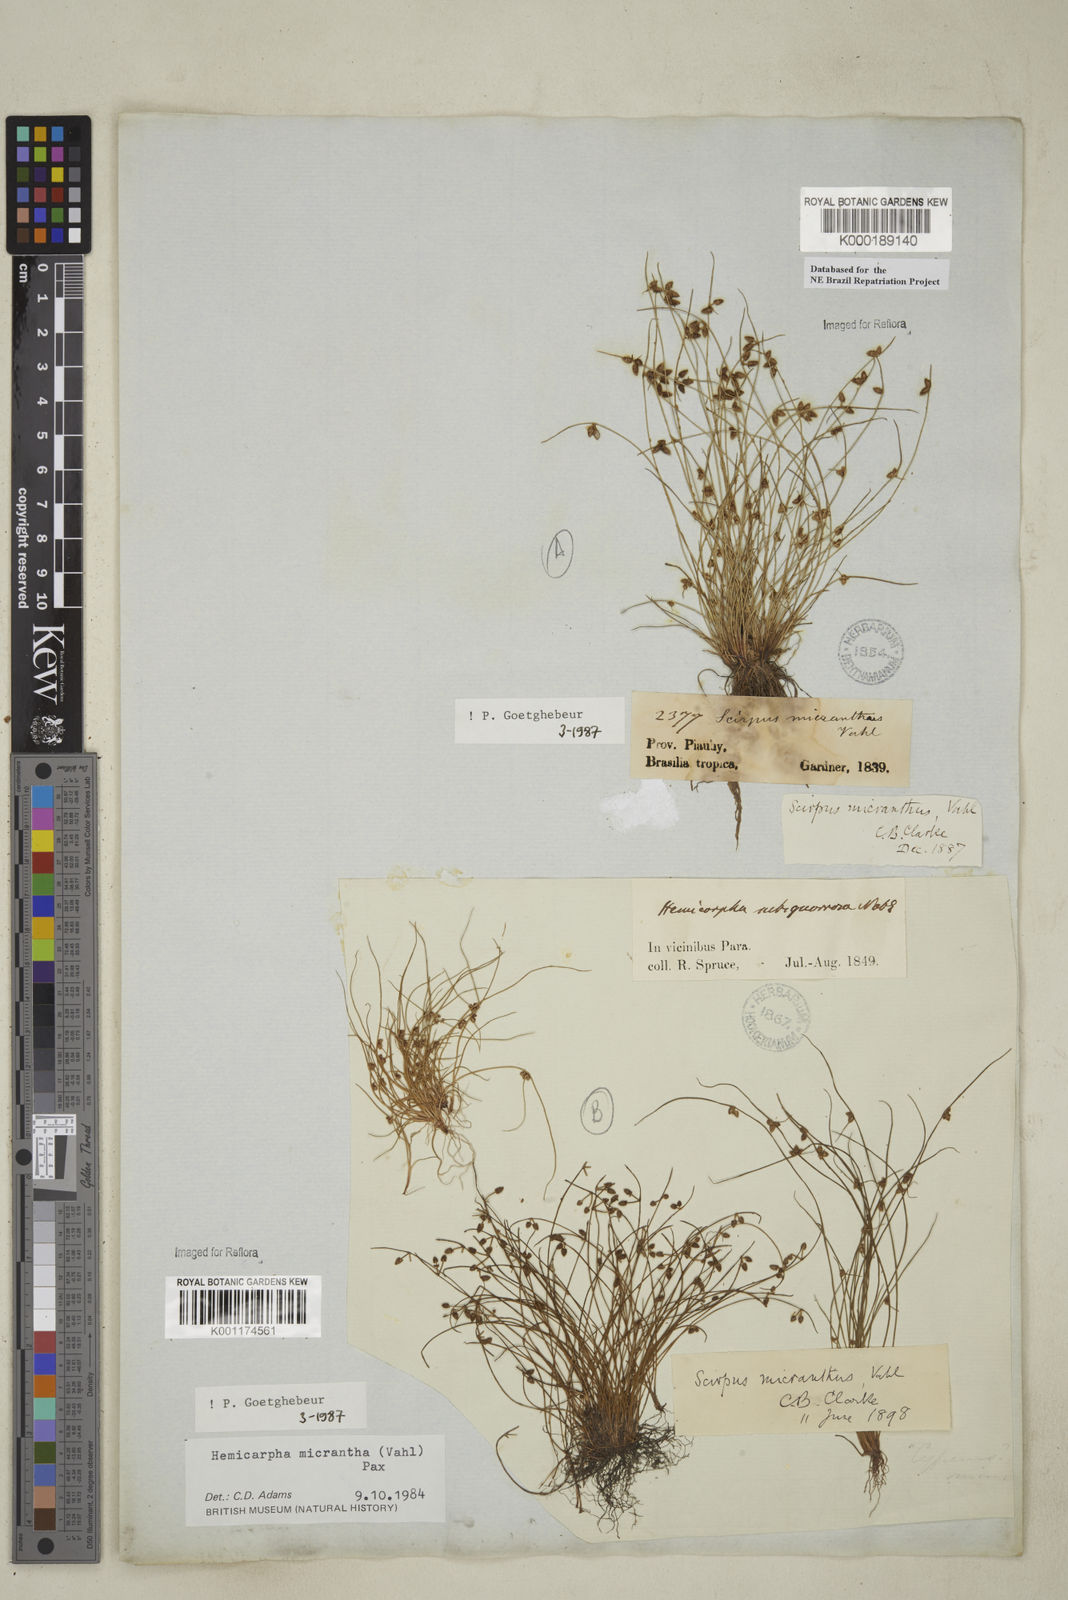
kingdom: Plantae
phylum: Tracheophyta
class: Liliopsida
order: Poales
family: Cyperaceae
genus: Cyperus
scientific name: Cyperus subsquarrosus
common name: Dwarf bulrush
